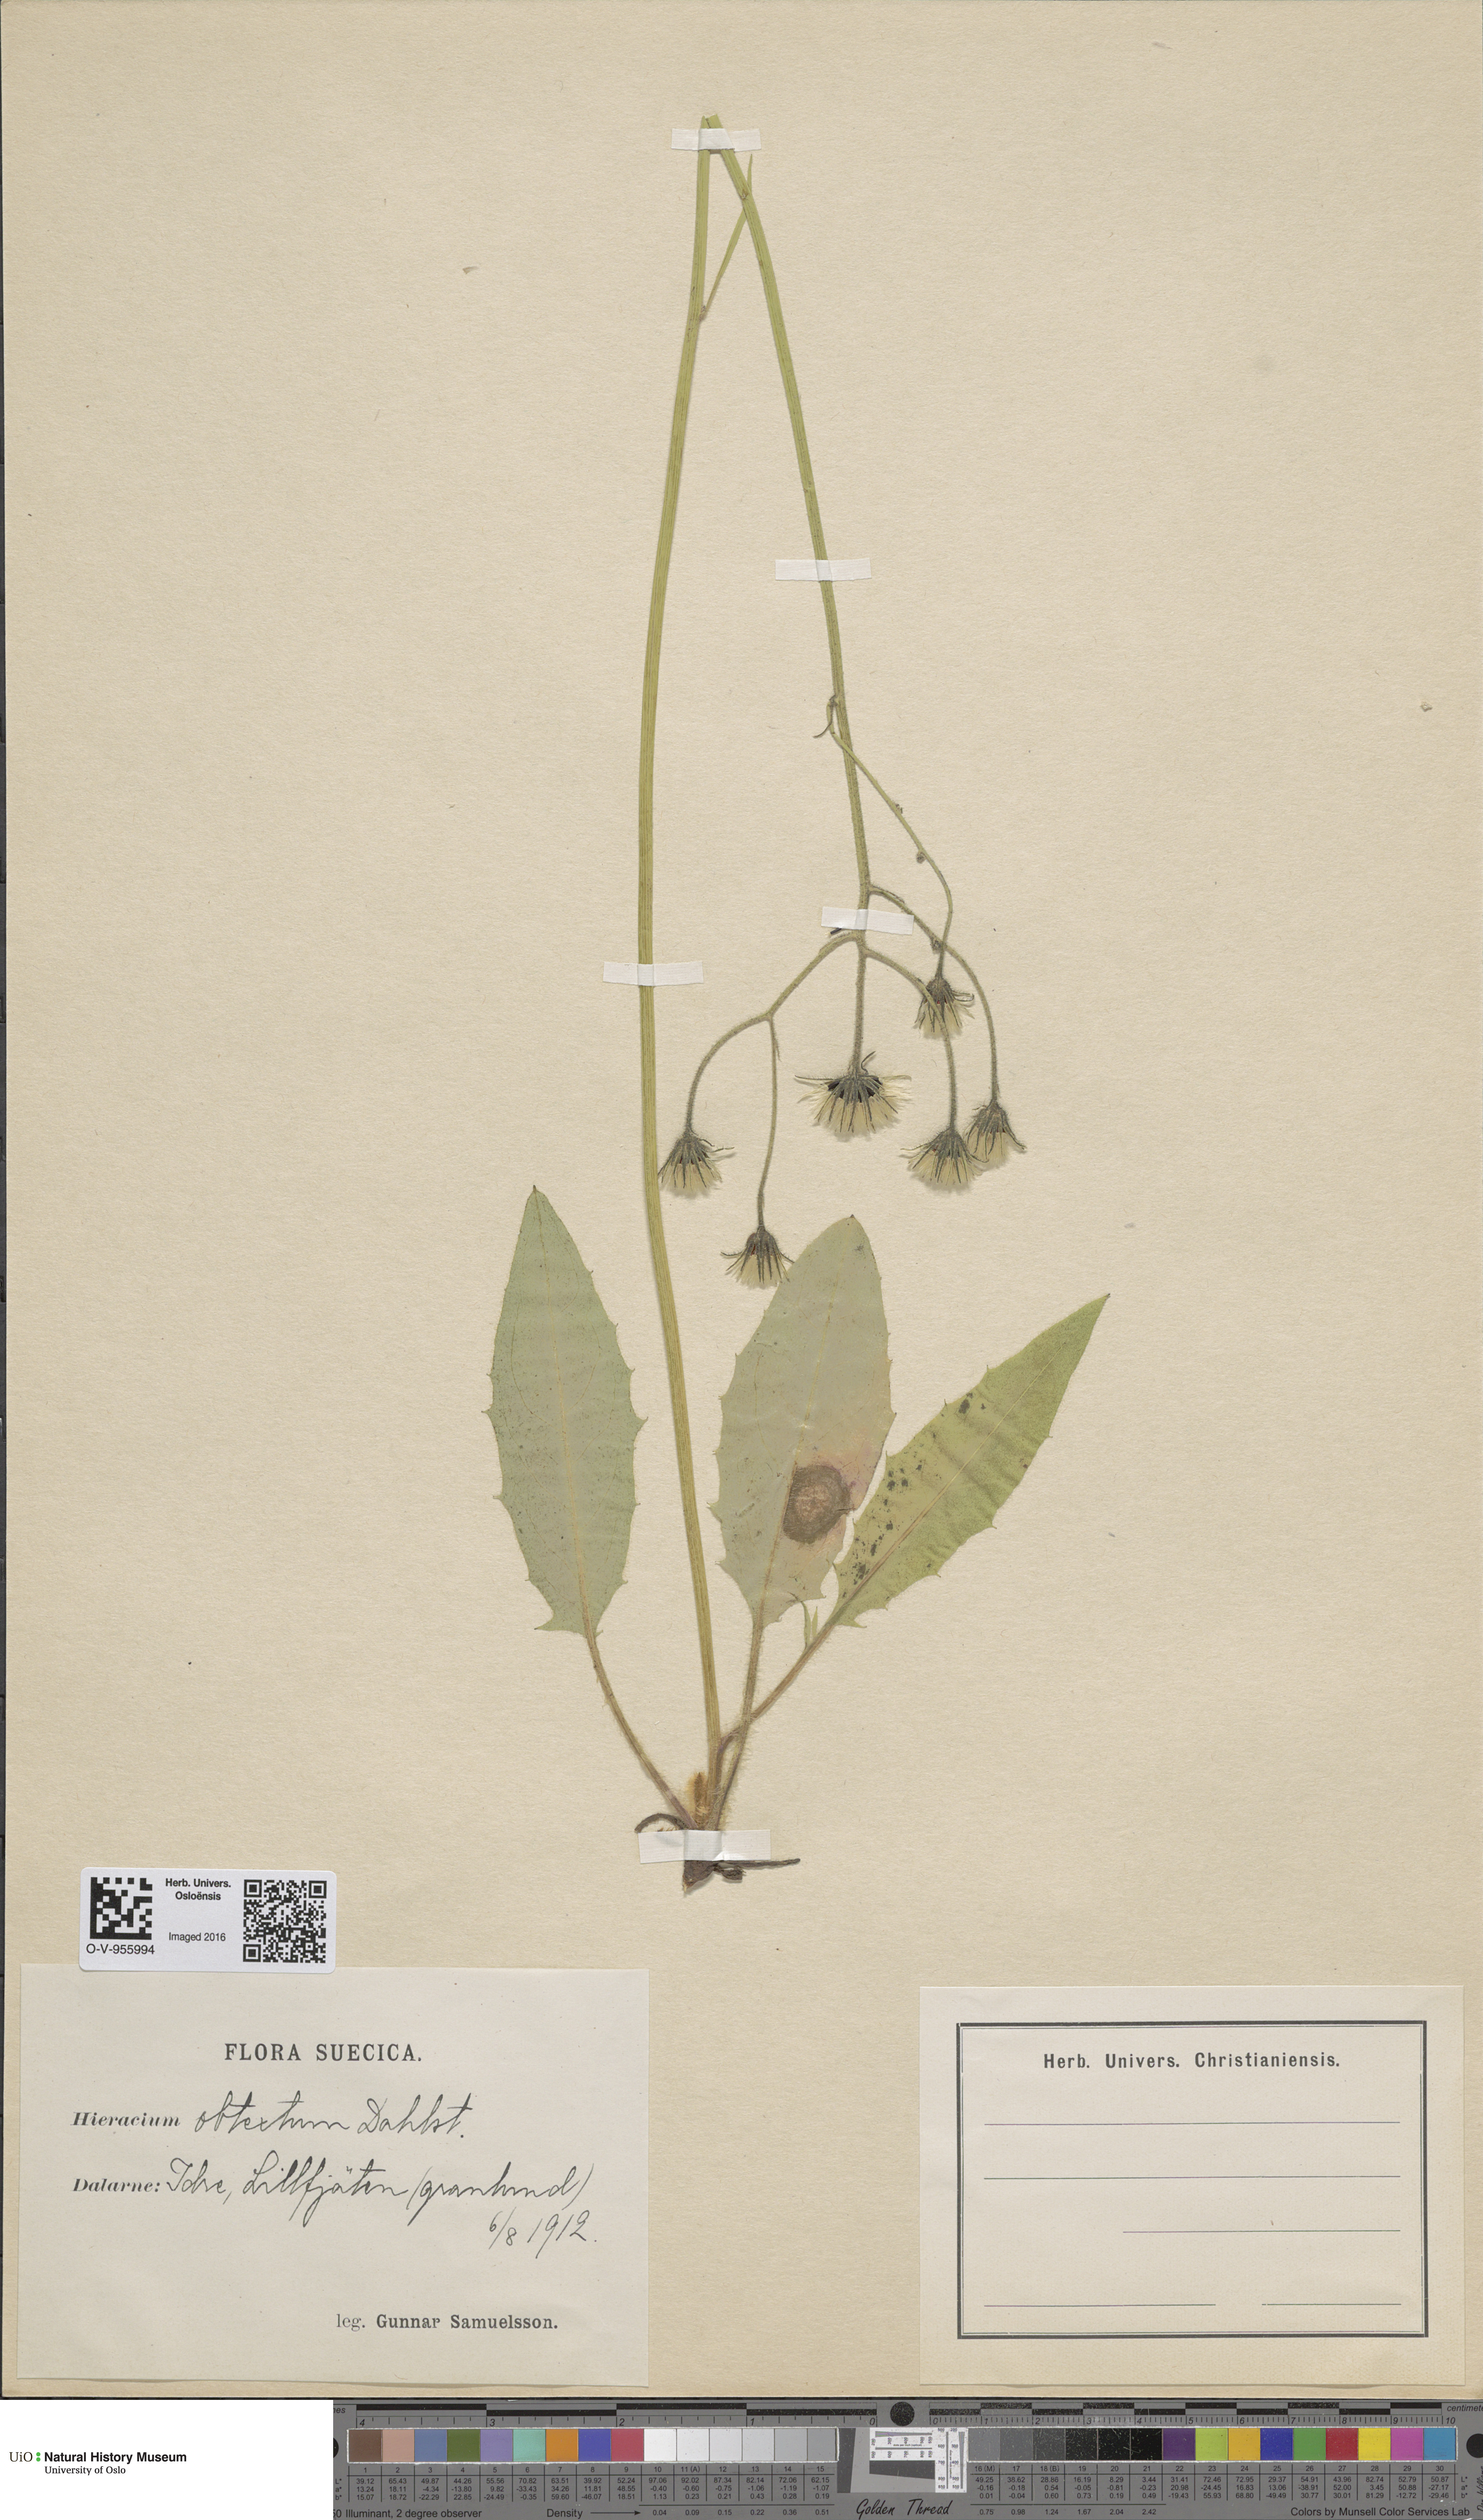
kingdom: Plantae
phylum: Tracheophyta
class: Magnoliopsida
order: Asterales
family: Asteraceae
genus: Hieracium
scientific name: Hieracium obtextum
